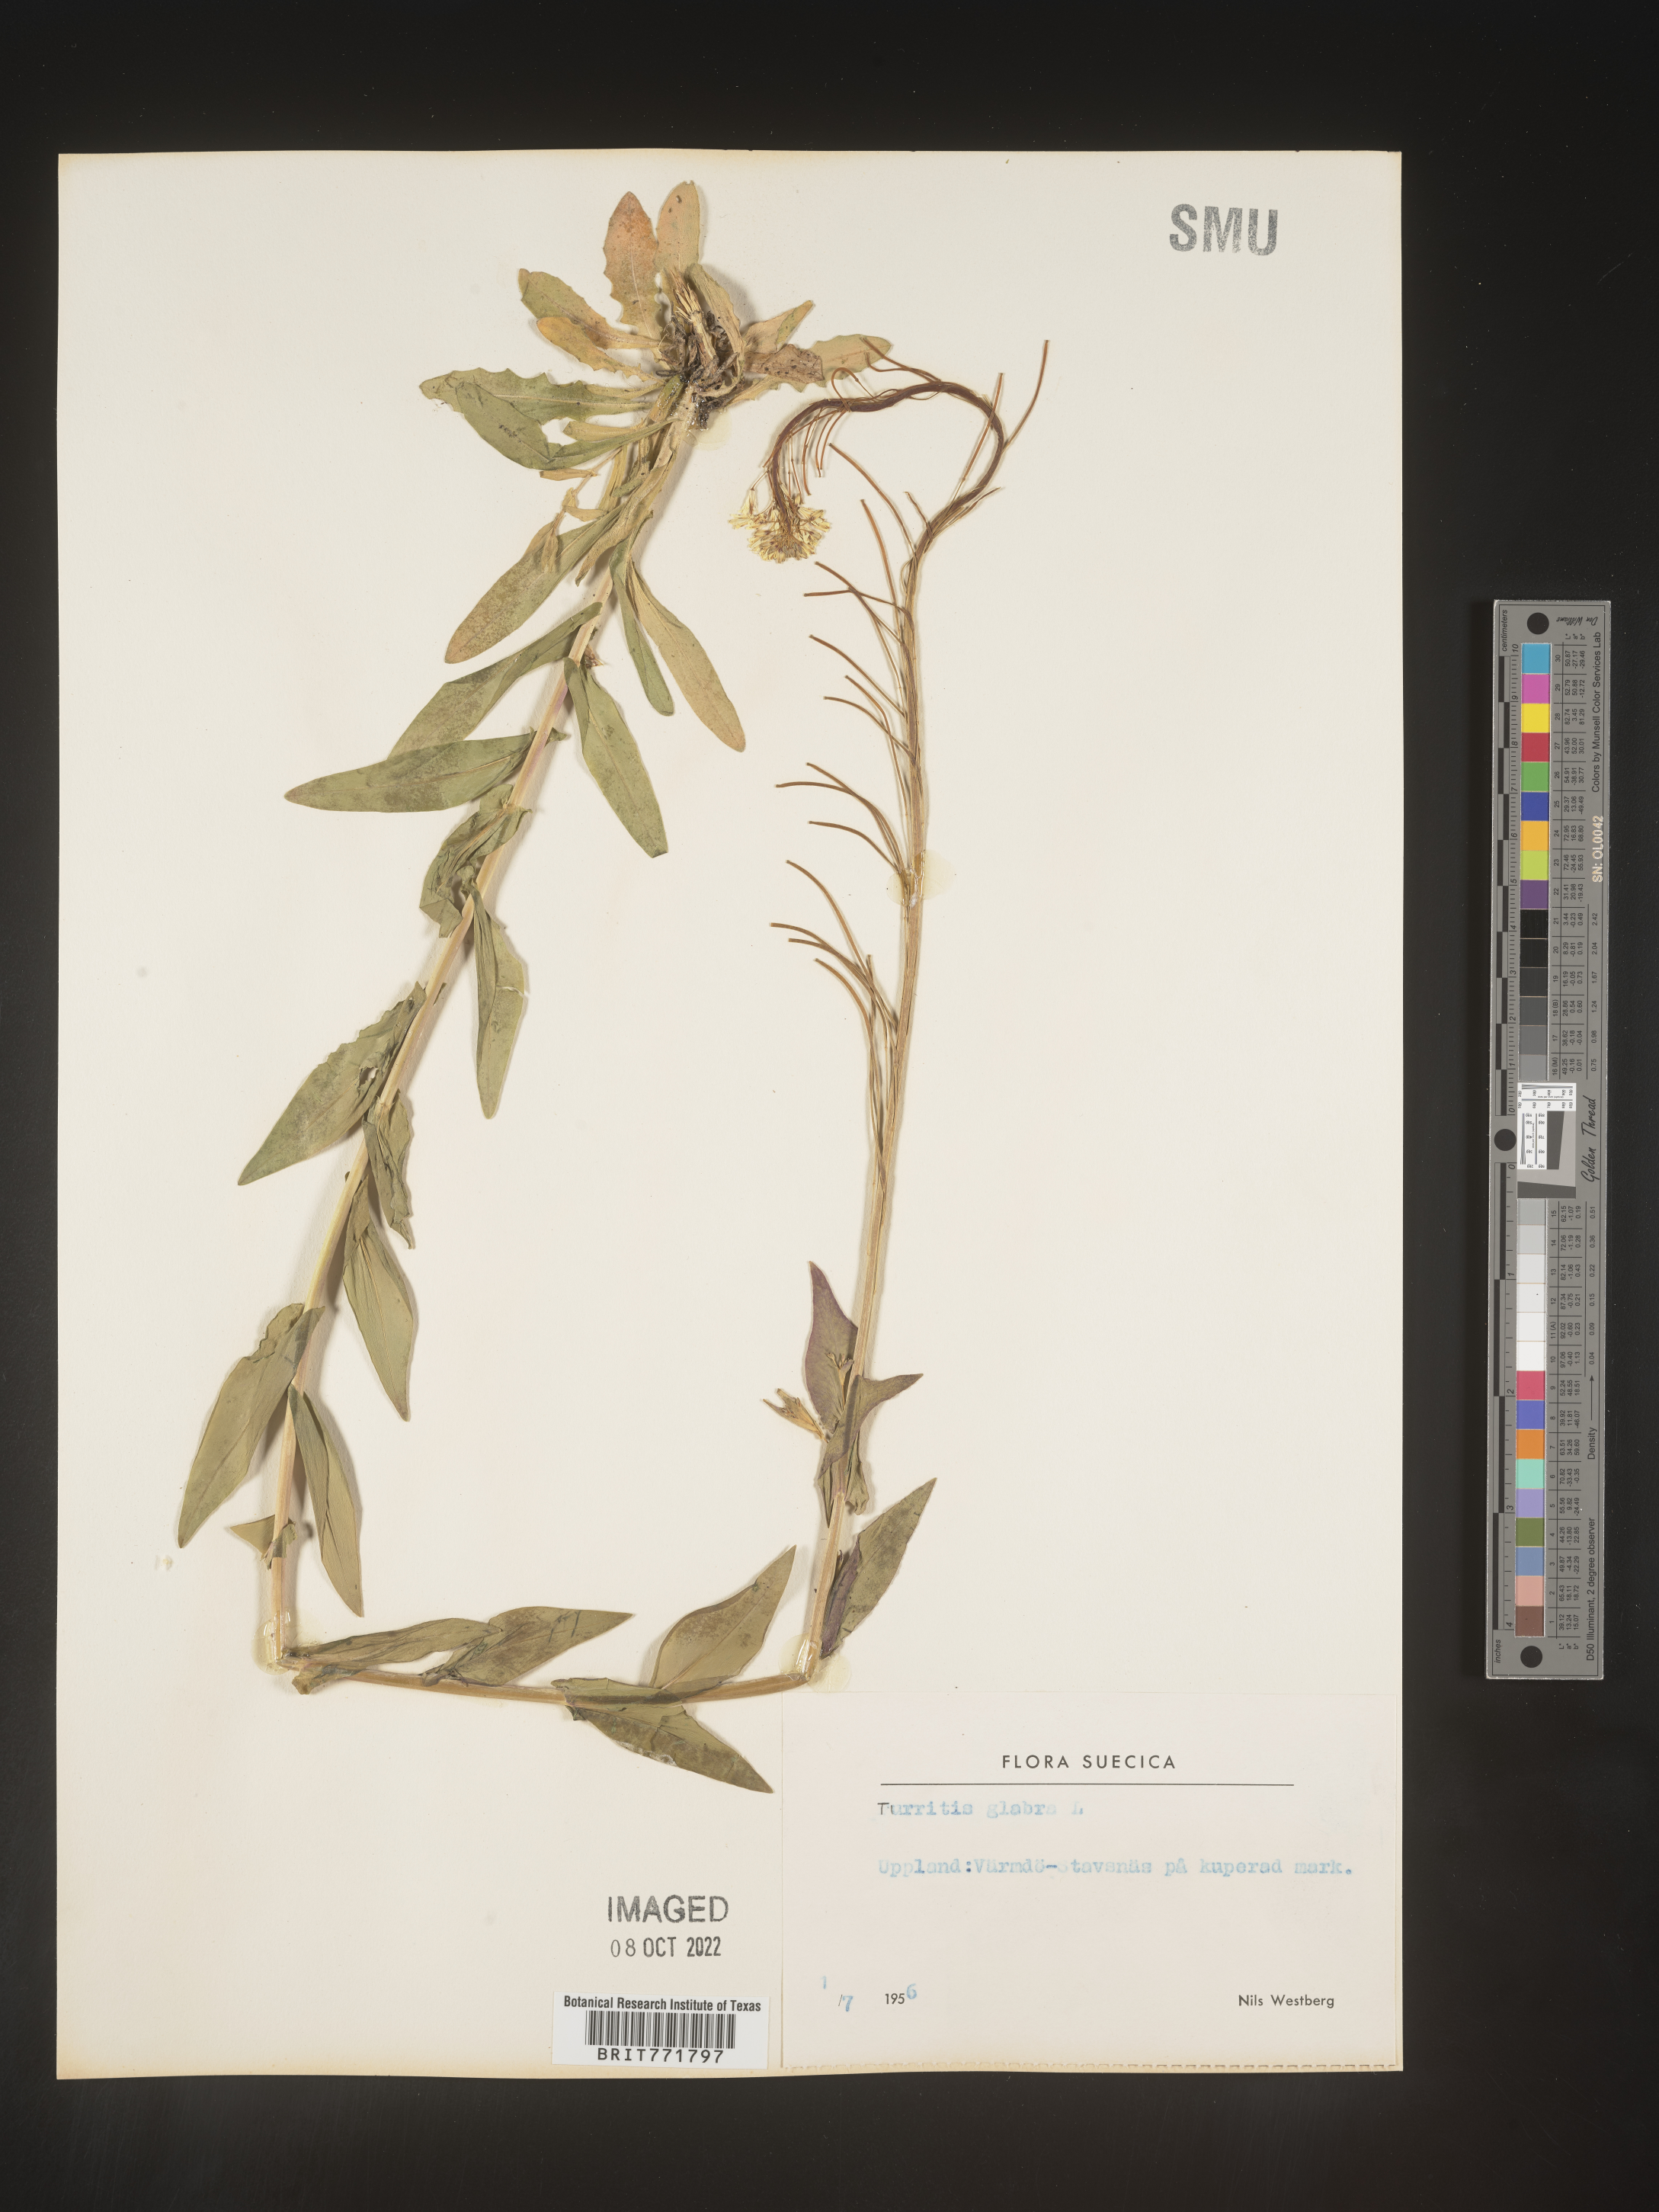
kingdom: Plantae
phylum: Tracheophyta
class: Magnoliopsida
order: Brassicales
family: Brassicaceae
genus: Arabis
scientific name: Arabis
